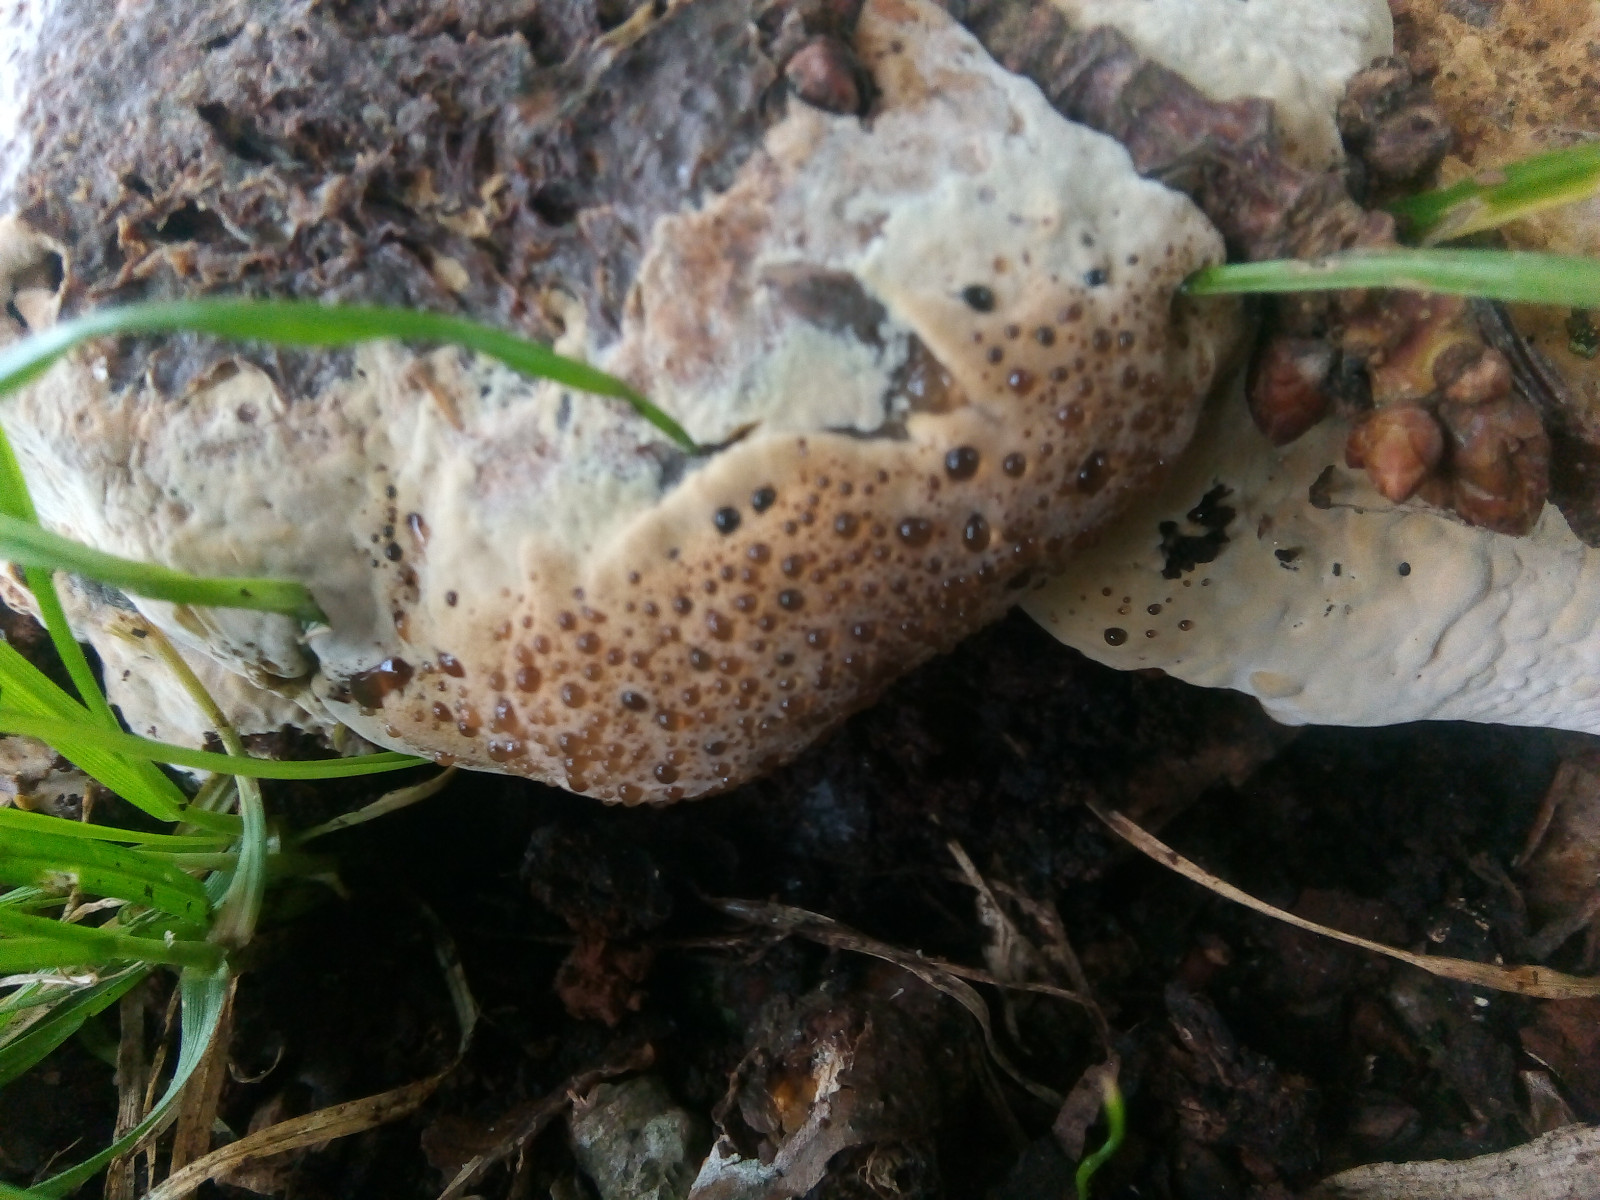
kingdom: Fungi
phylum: Basidiomycota
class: Agaricomycetes
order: Hymenochaetales
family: Hymenochaetaceae
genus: Pseudoinonotus
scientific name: Pseudoinonotus dryadeus
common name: ege-spejlporesvamp
